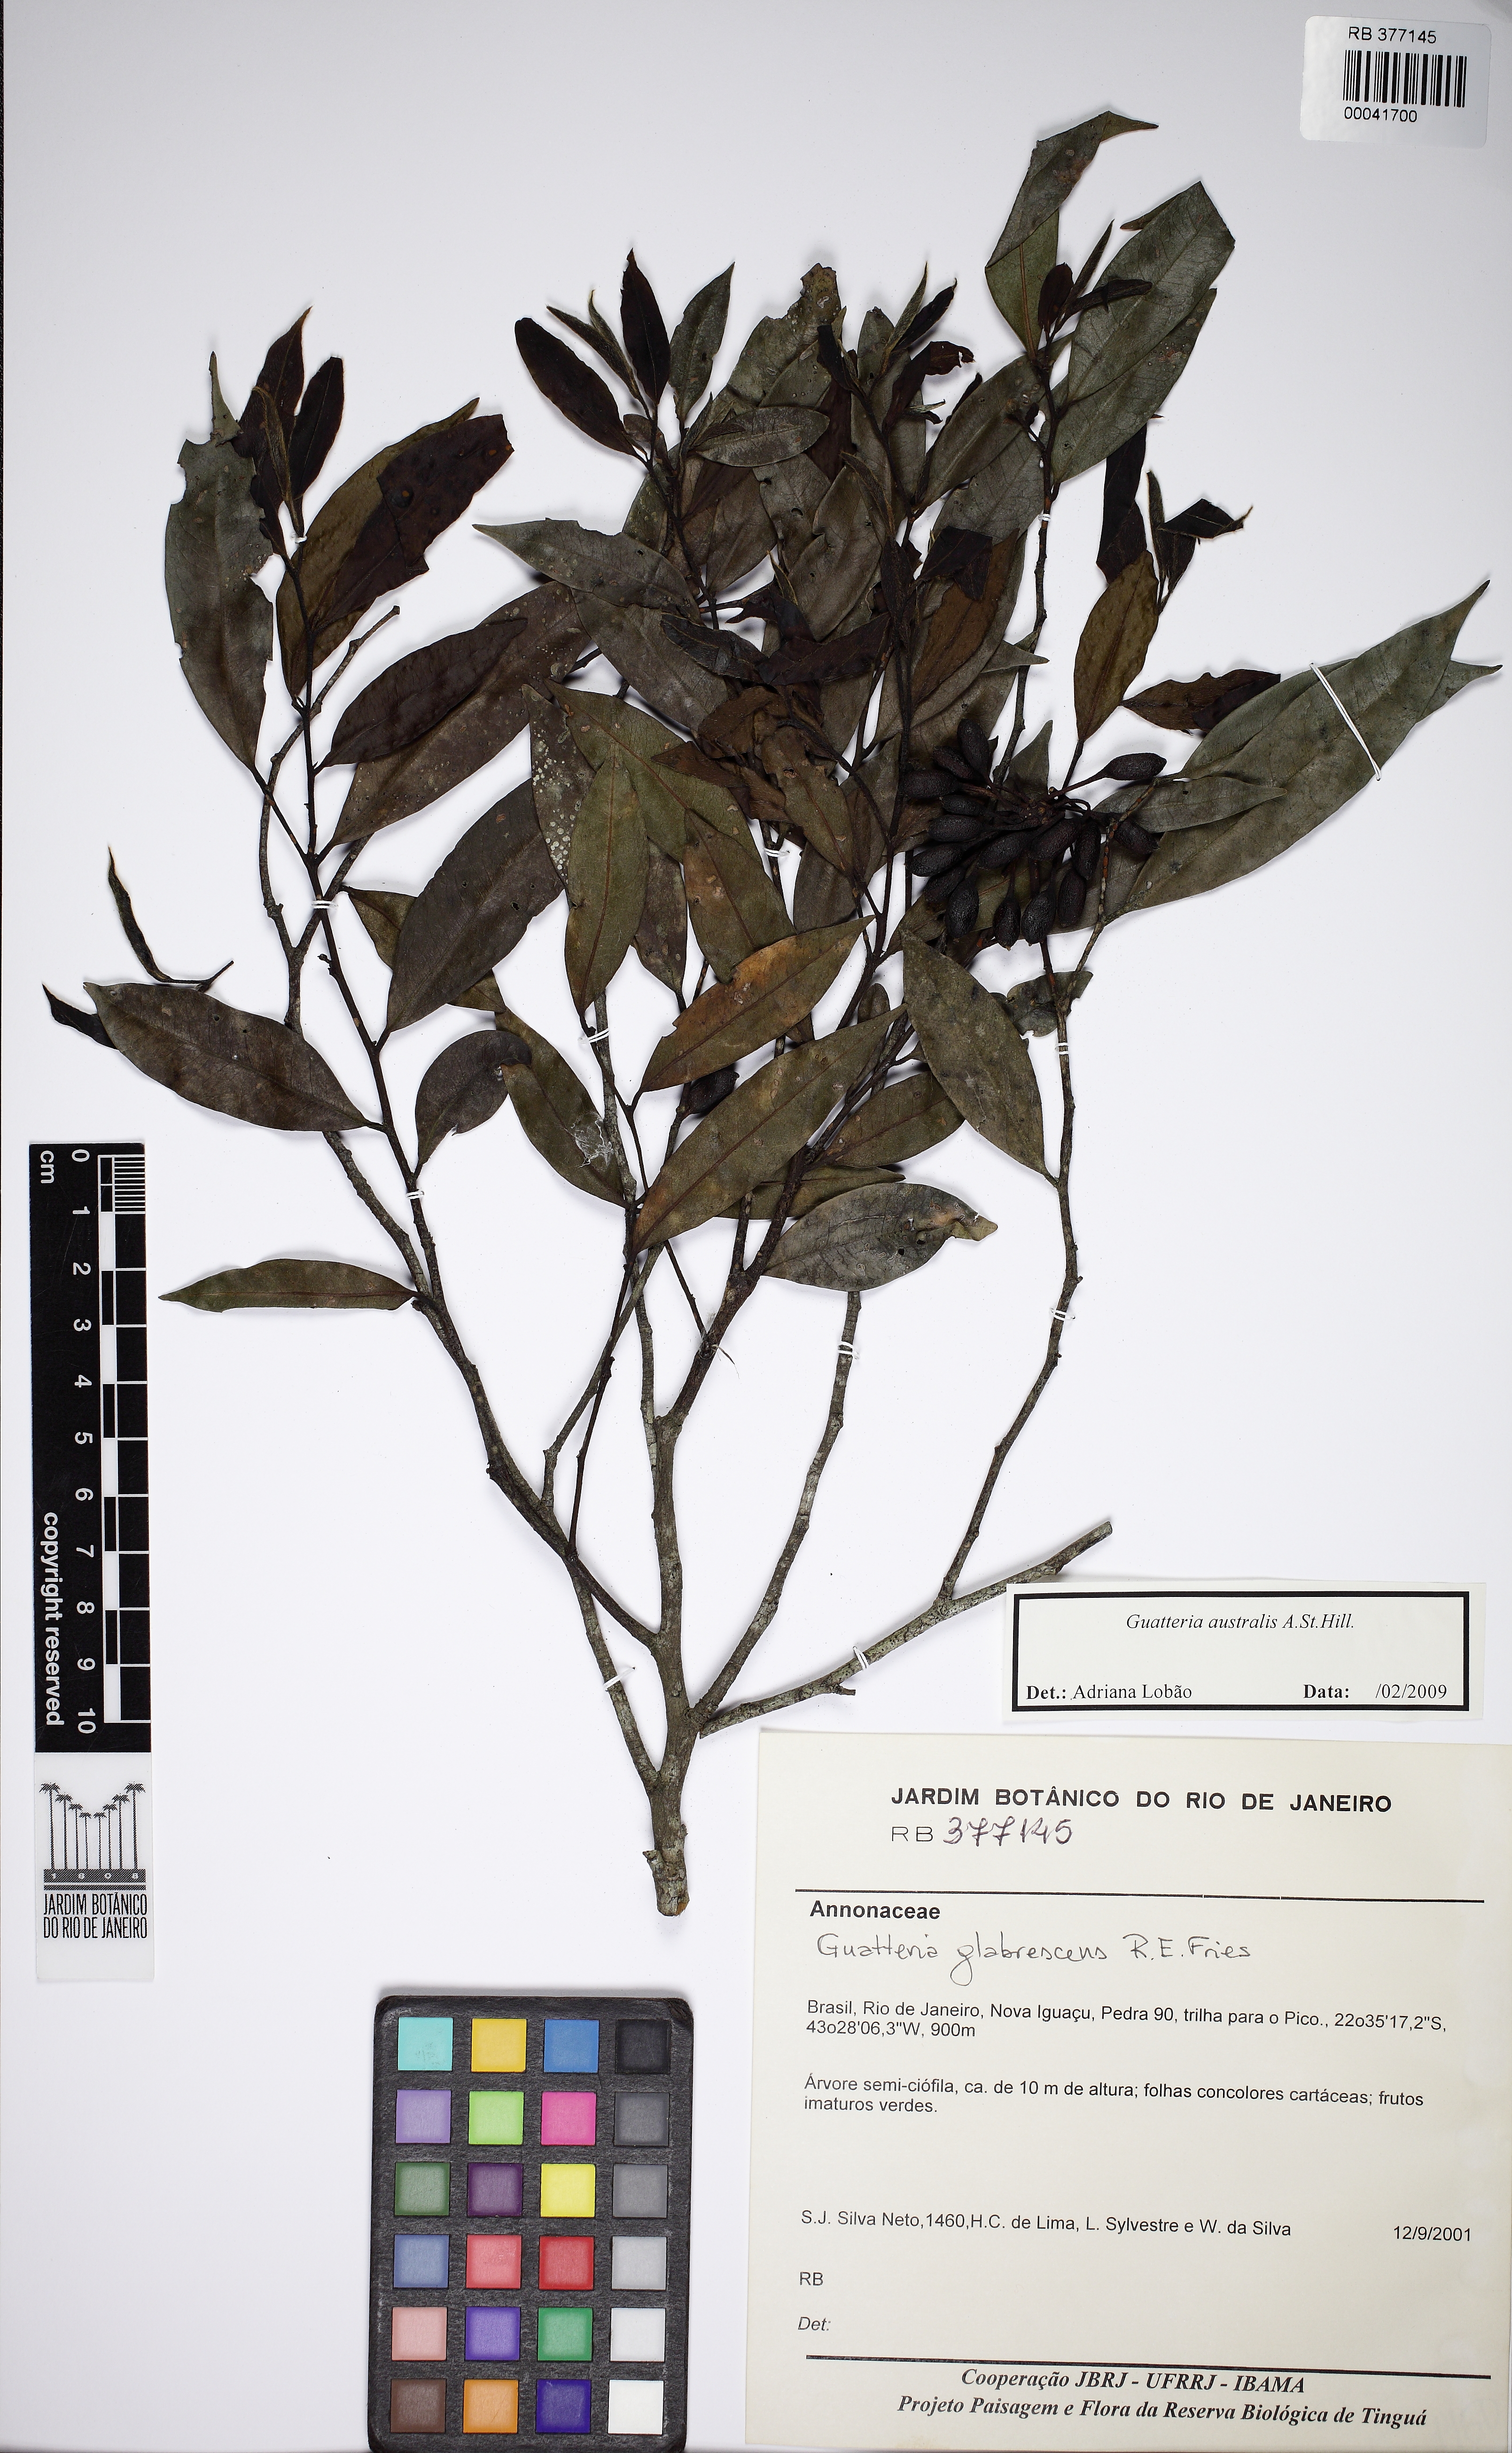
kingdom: Plantae
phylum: Tracheophyta
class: Magnoliopsida
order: Magnoliales
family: Annonaceae
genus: Guatteria
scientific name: Guatteria australis
